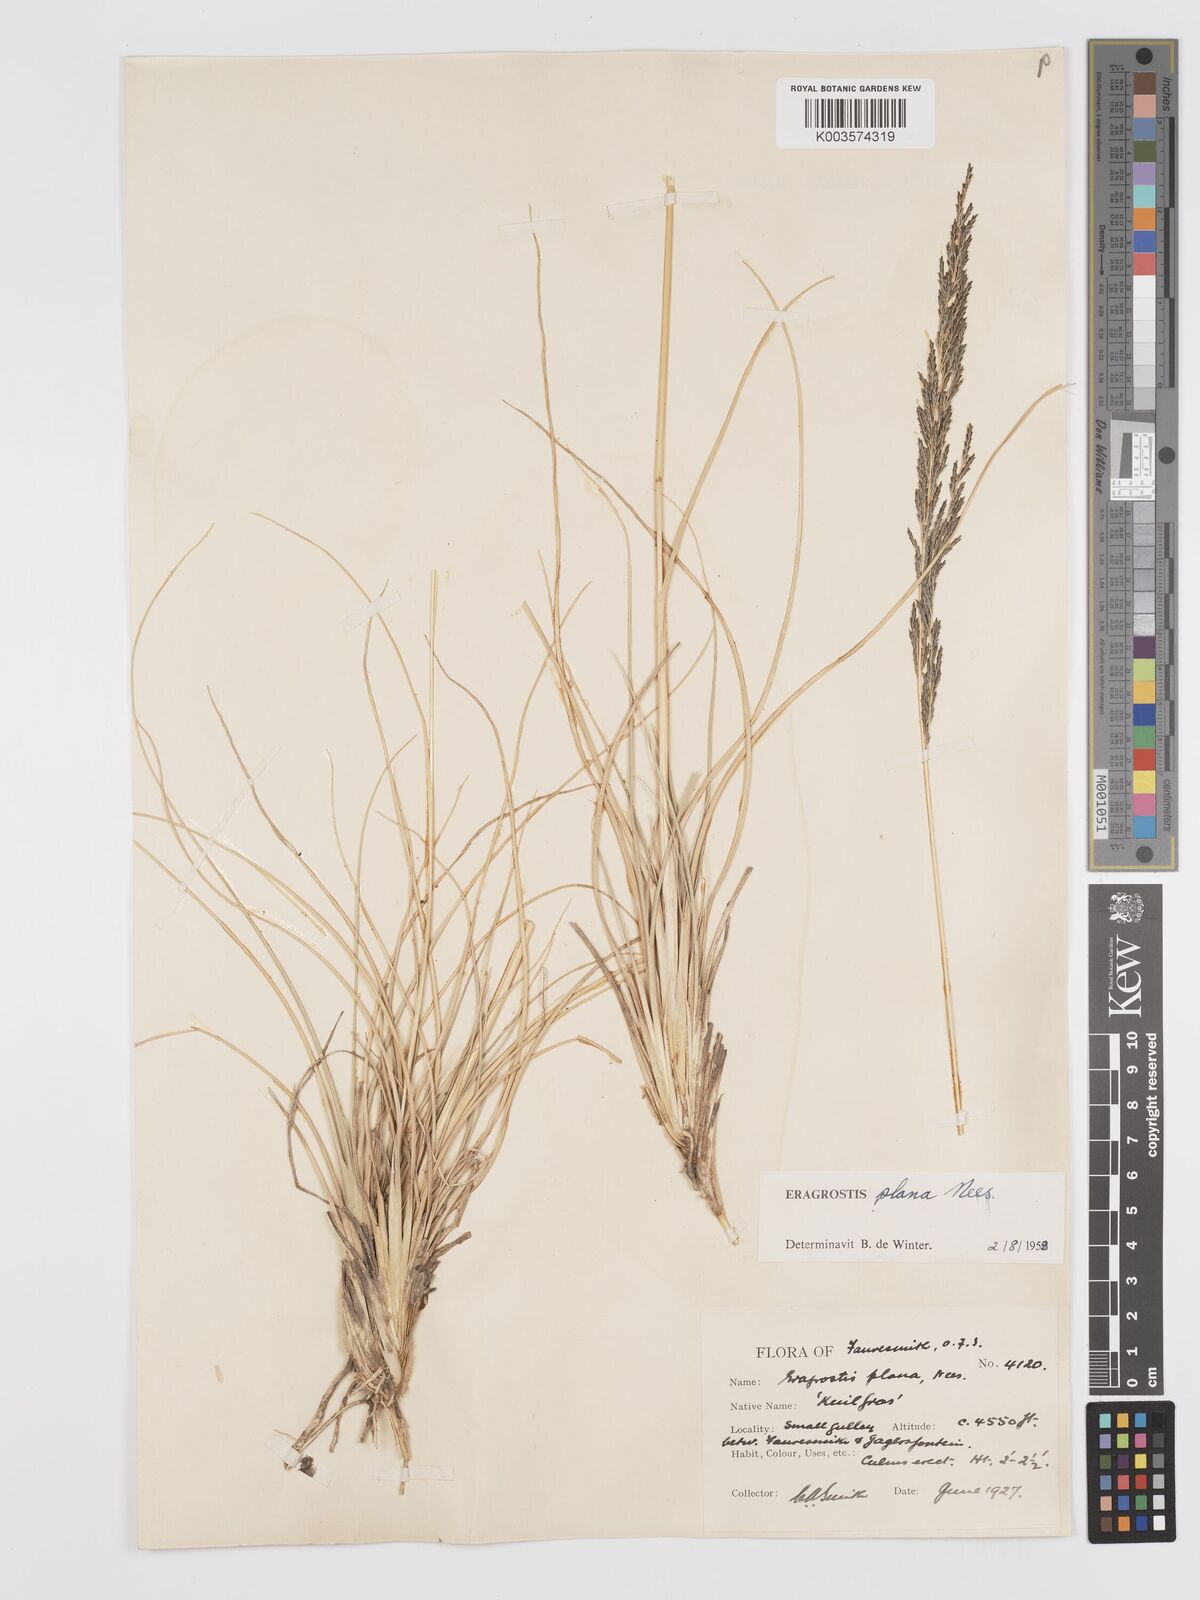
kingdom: Plantae
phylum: Tracheophyta
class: Liliopsida
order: Poales
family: Poaceae
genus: Eragrostis
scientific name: Eragrostis plana
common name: South african lovegrass
